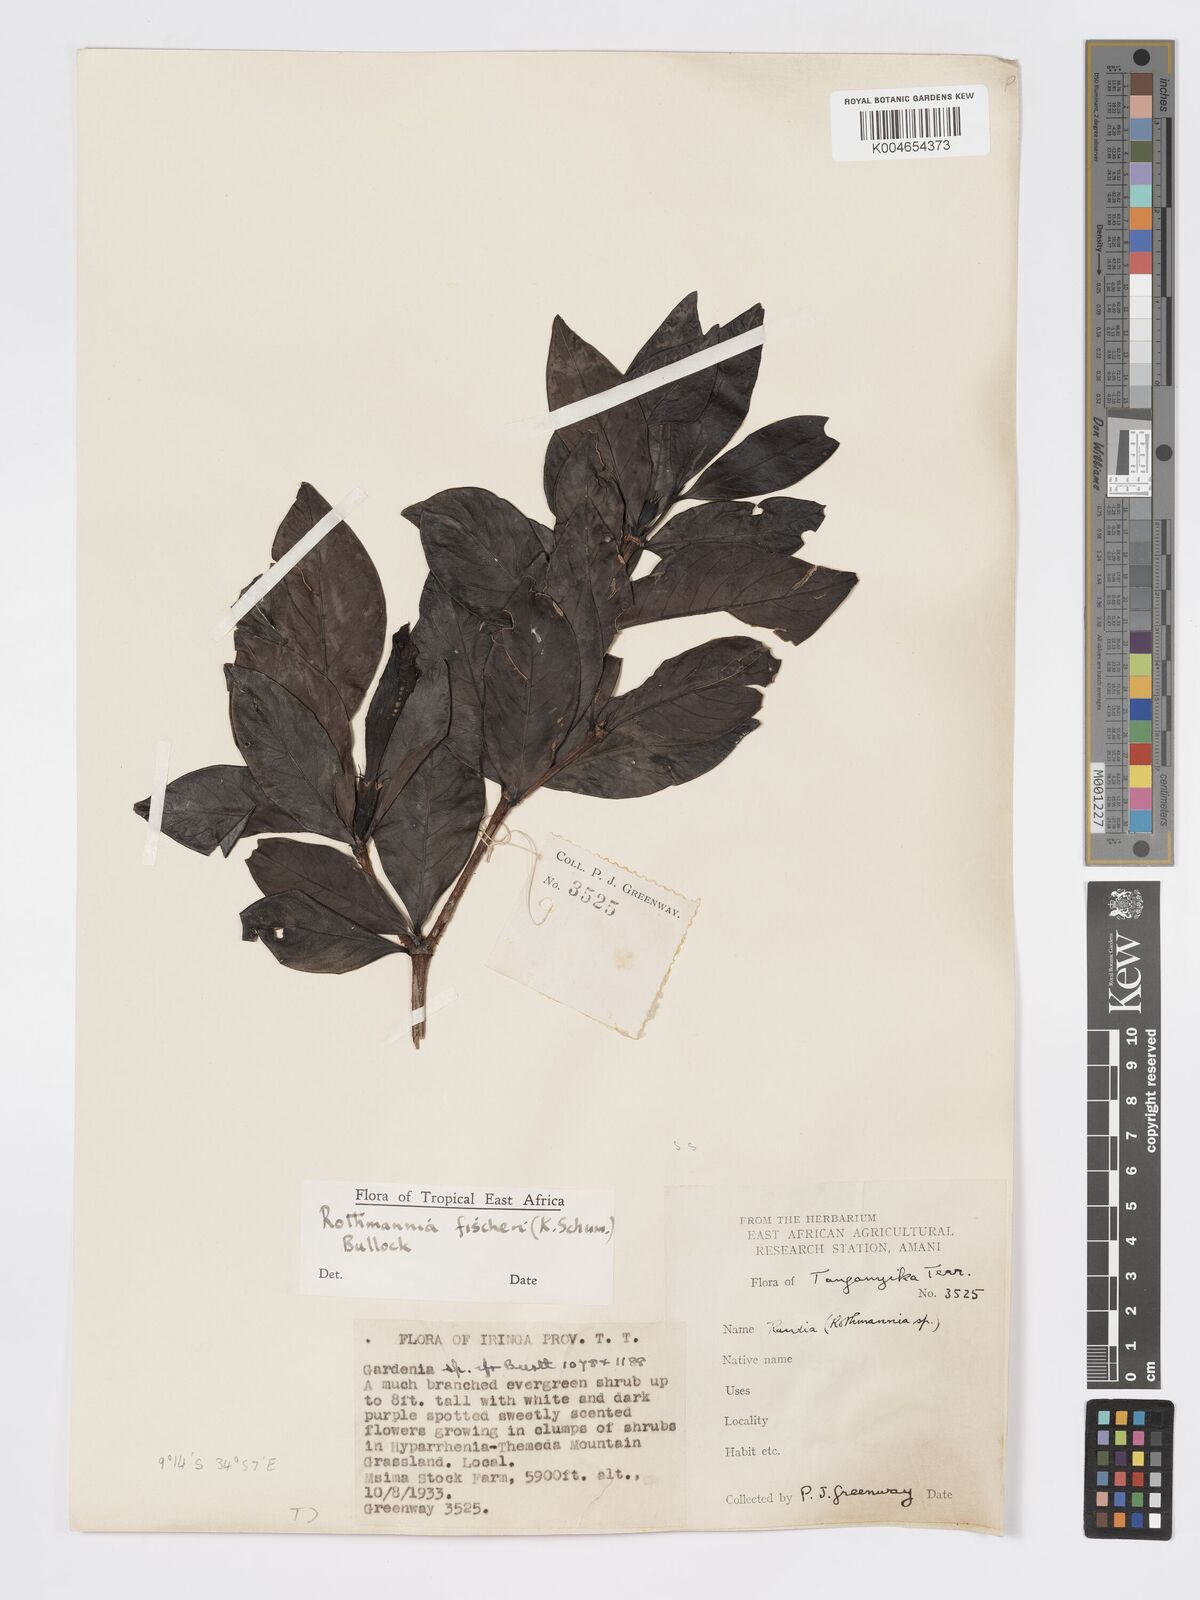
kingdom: Plantae
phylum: Tracheophyta
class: Magnoliopsida
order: Gentianales
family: Rubiaceae
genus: Rothmannia
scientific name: Rothmannia fischeri
